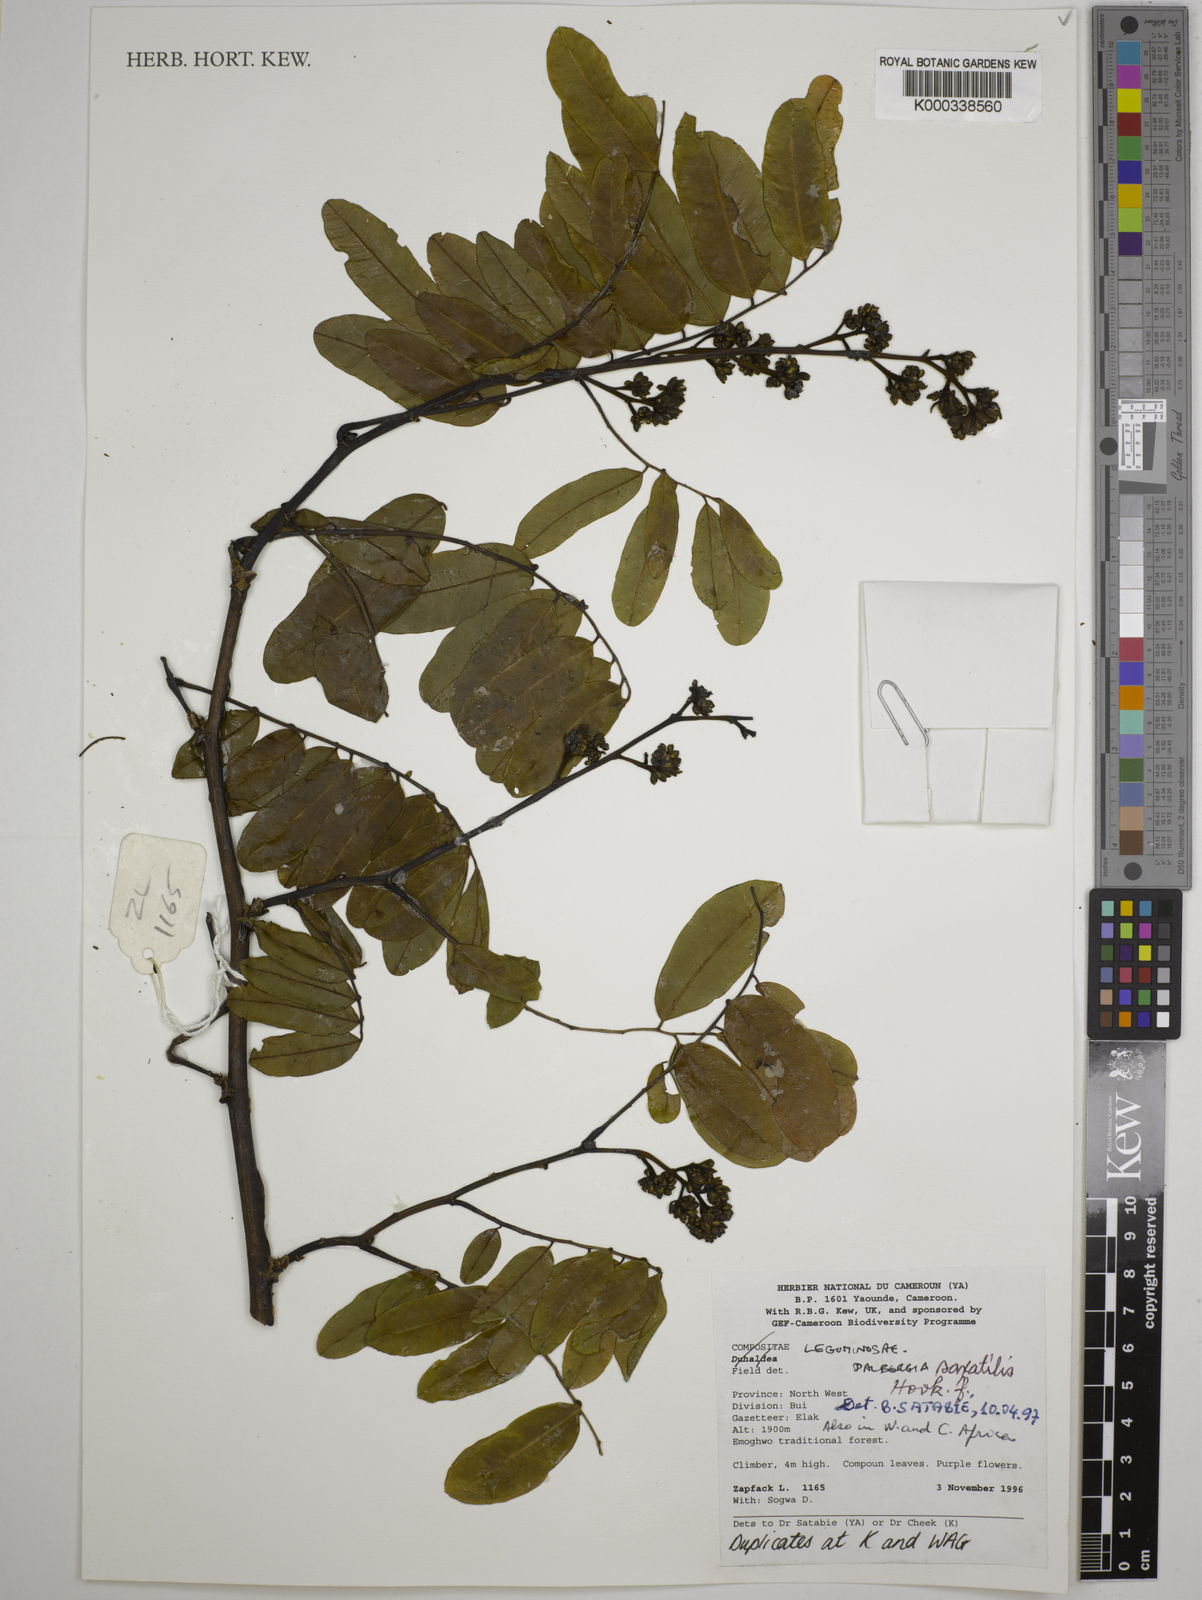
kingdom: Plantae
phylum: Tracheophyta
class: Magnoliopsida
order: Fabales
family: Fabaceae
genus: Dalbergia
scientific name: Dalbergia saxatilis
